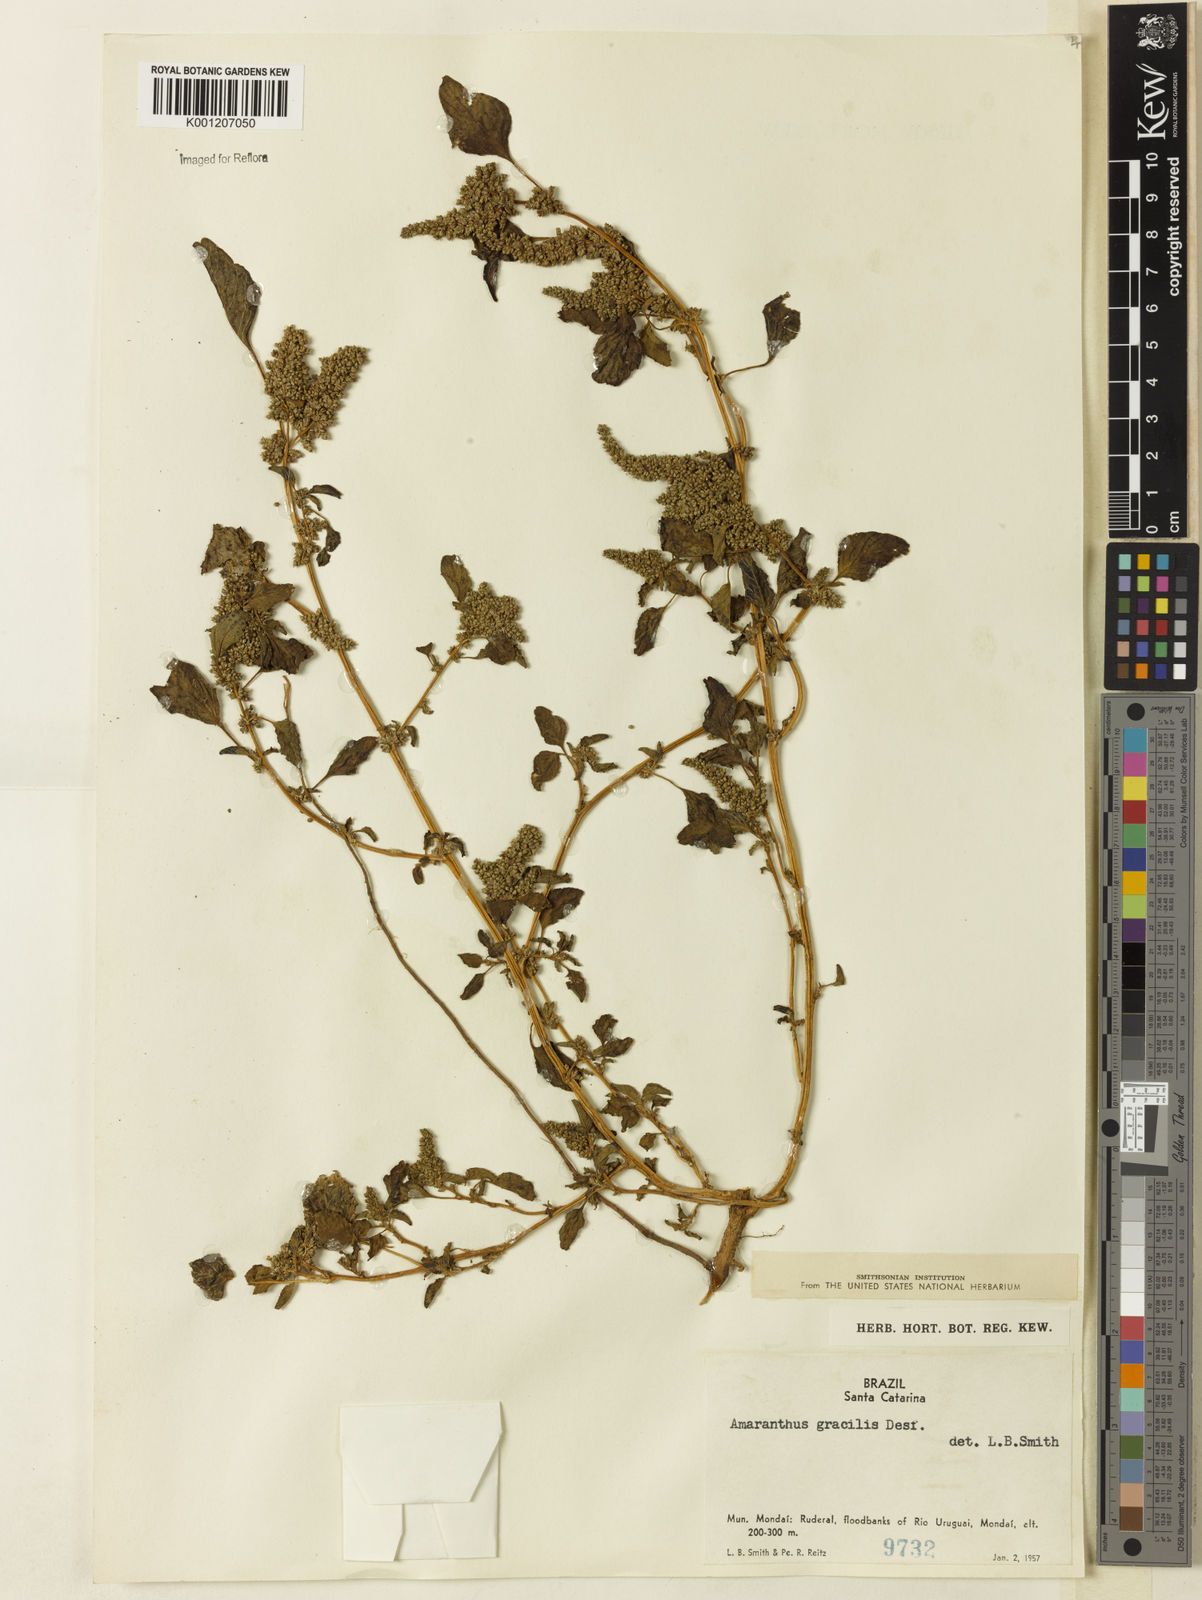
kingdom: Plantae
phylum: Tracheophyta
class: Magnoliopsida
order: Caryophyllales
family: Amaranthaceae
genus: Amaranthus
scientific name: Amaranthus
